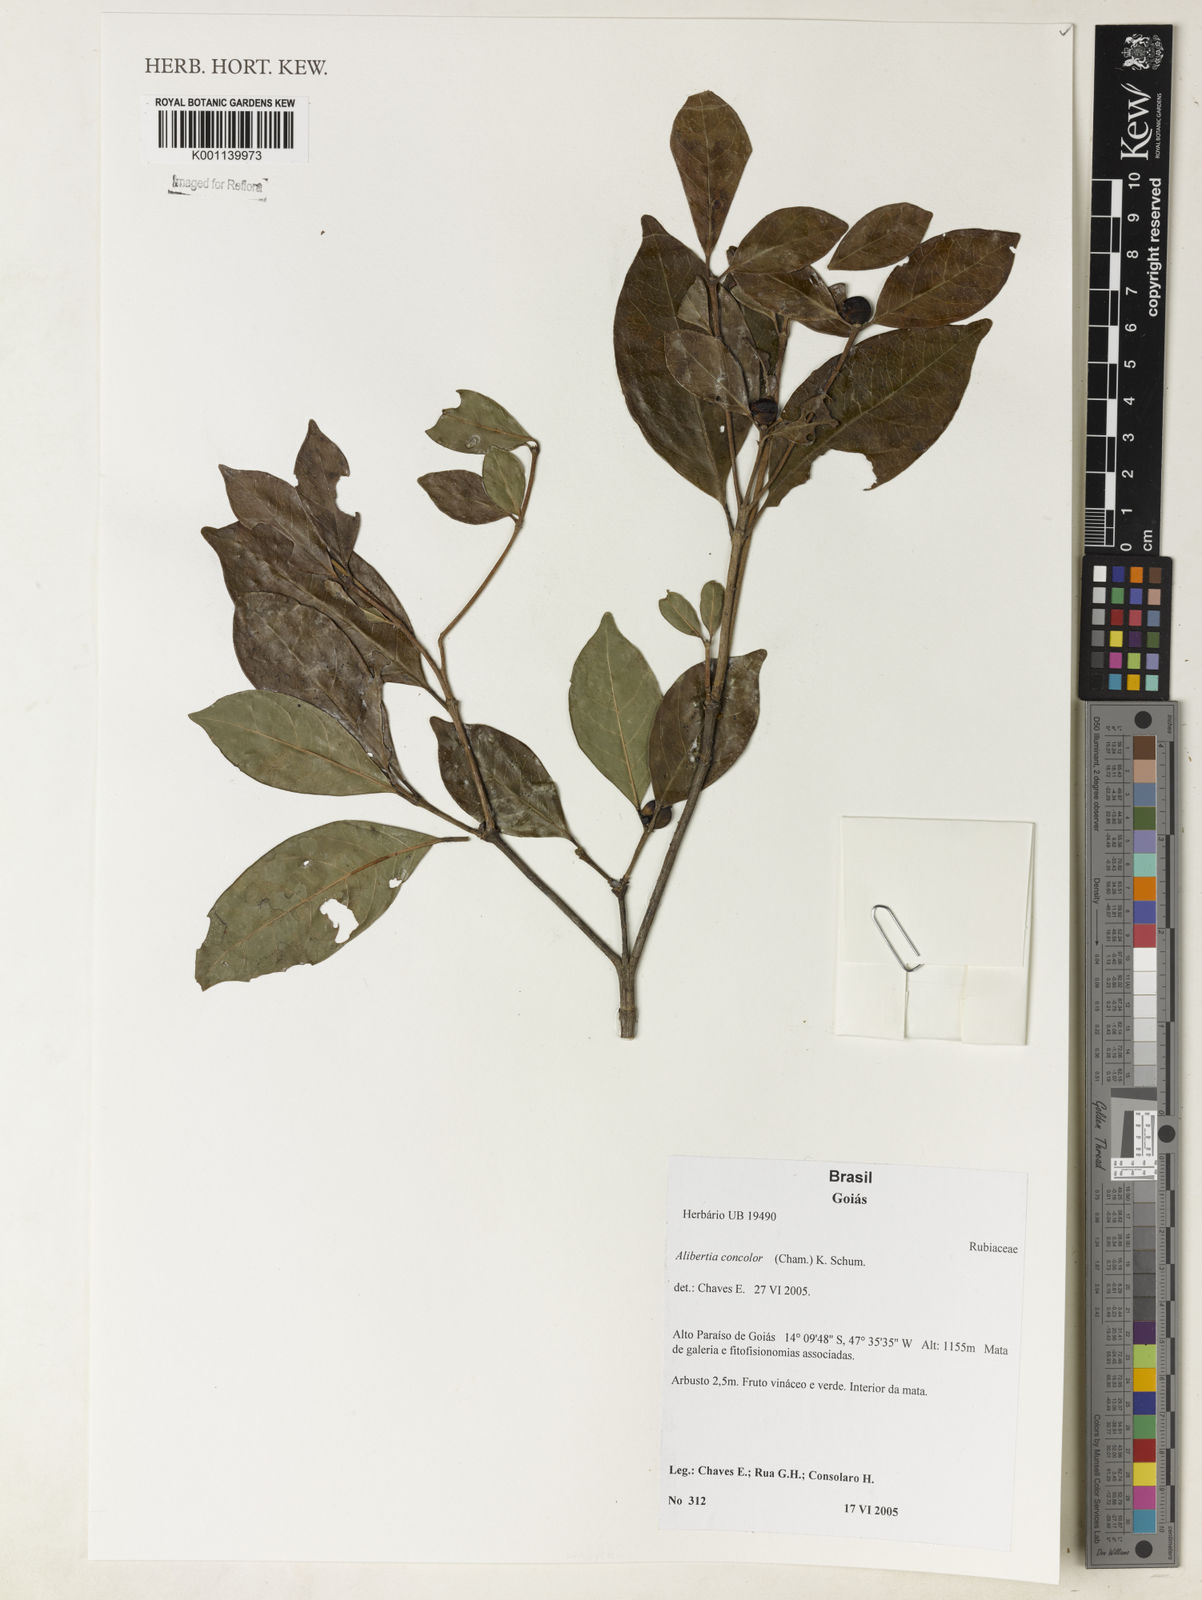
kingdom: Plantae
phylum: Tracheophyta
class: Magnoliopsida
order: Gentianales
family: Rubiaceae
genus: Cordiera
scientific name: Cordiera concolor
